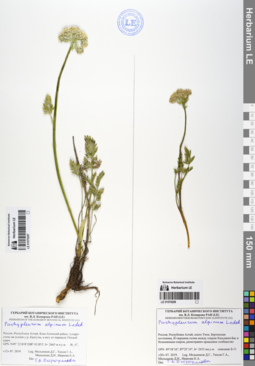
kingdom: Plantae
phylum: Tracheophyta
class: Magnoliopsida
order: Apiales
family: Apiaceae
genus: Pachypleurum
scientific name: Pachypleurum mutellinoides
